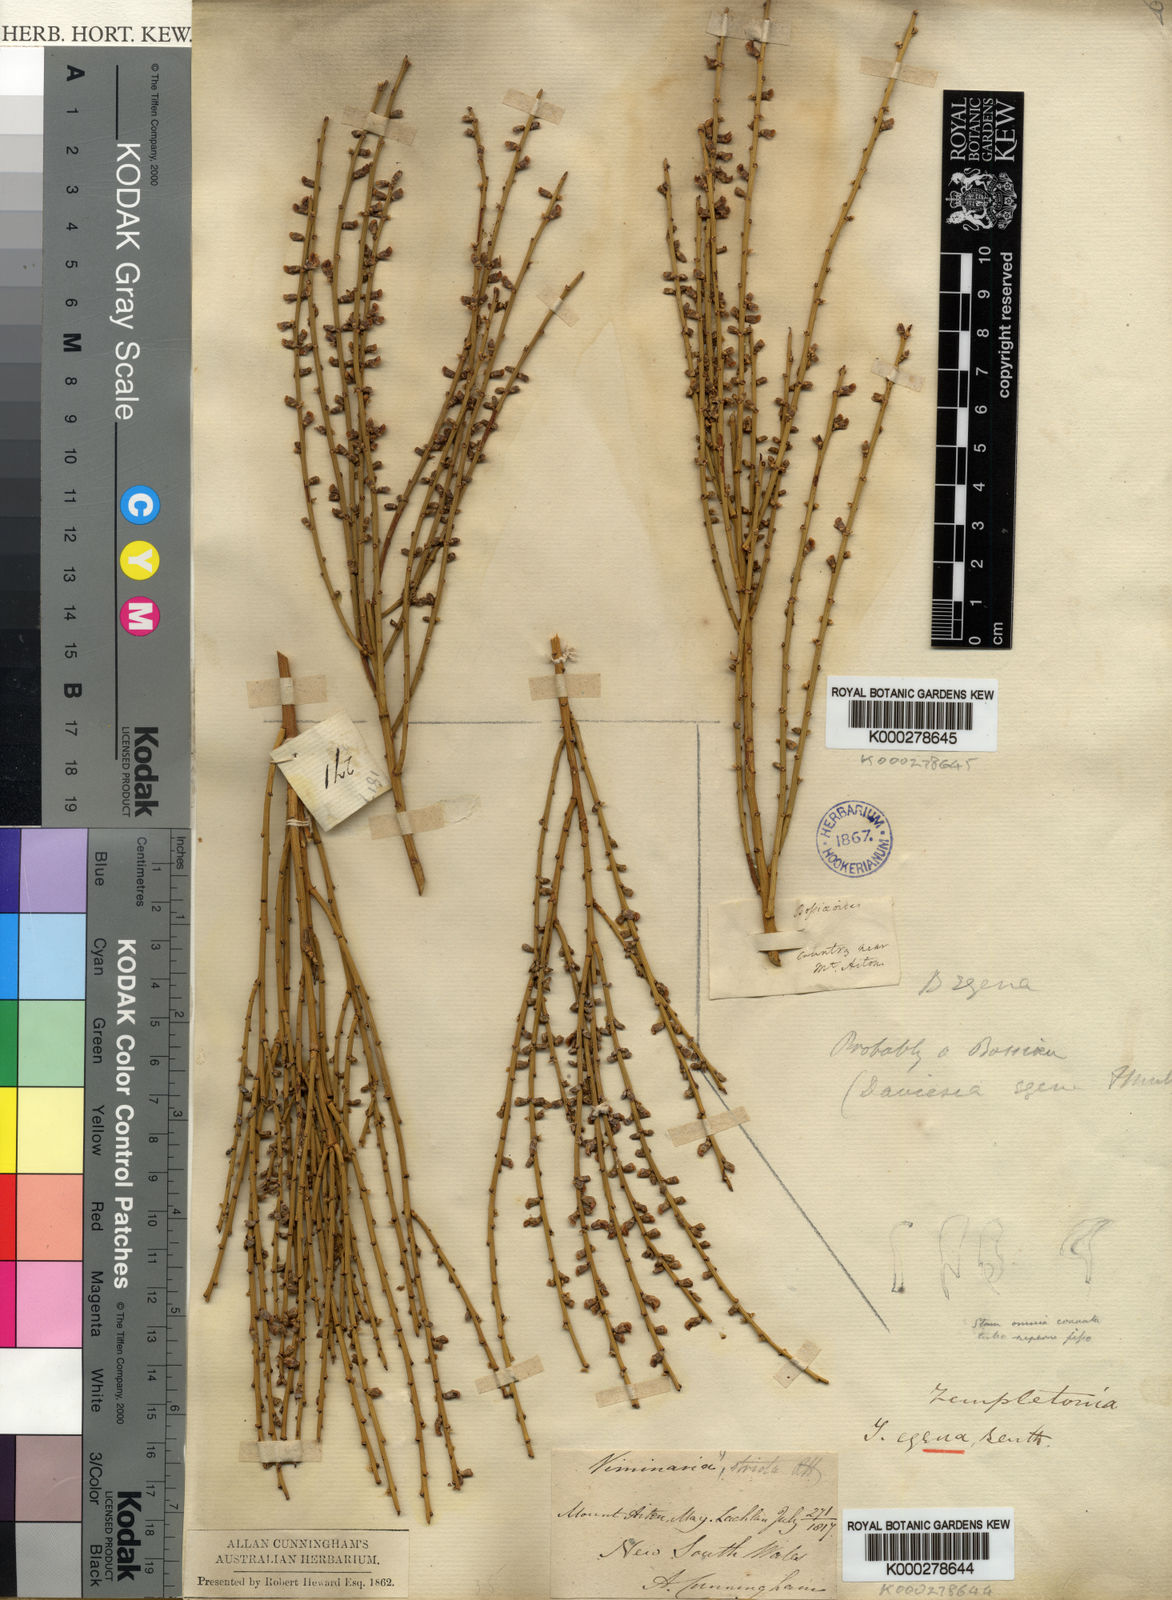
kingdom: Plantae
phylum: Tracheophyta
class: Magnoliopsida
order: Fabales
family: Fabaceae
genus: Templetonia
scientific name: Templetonia egena
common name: Desert broombush
